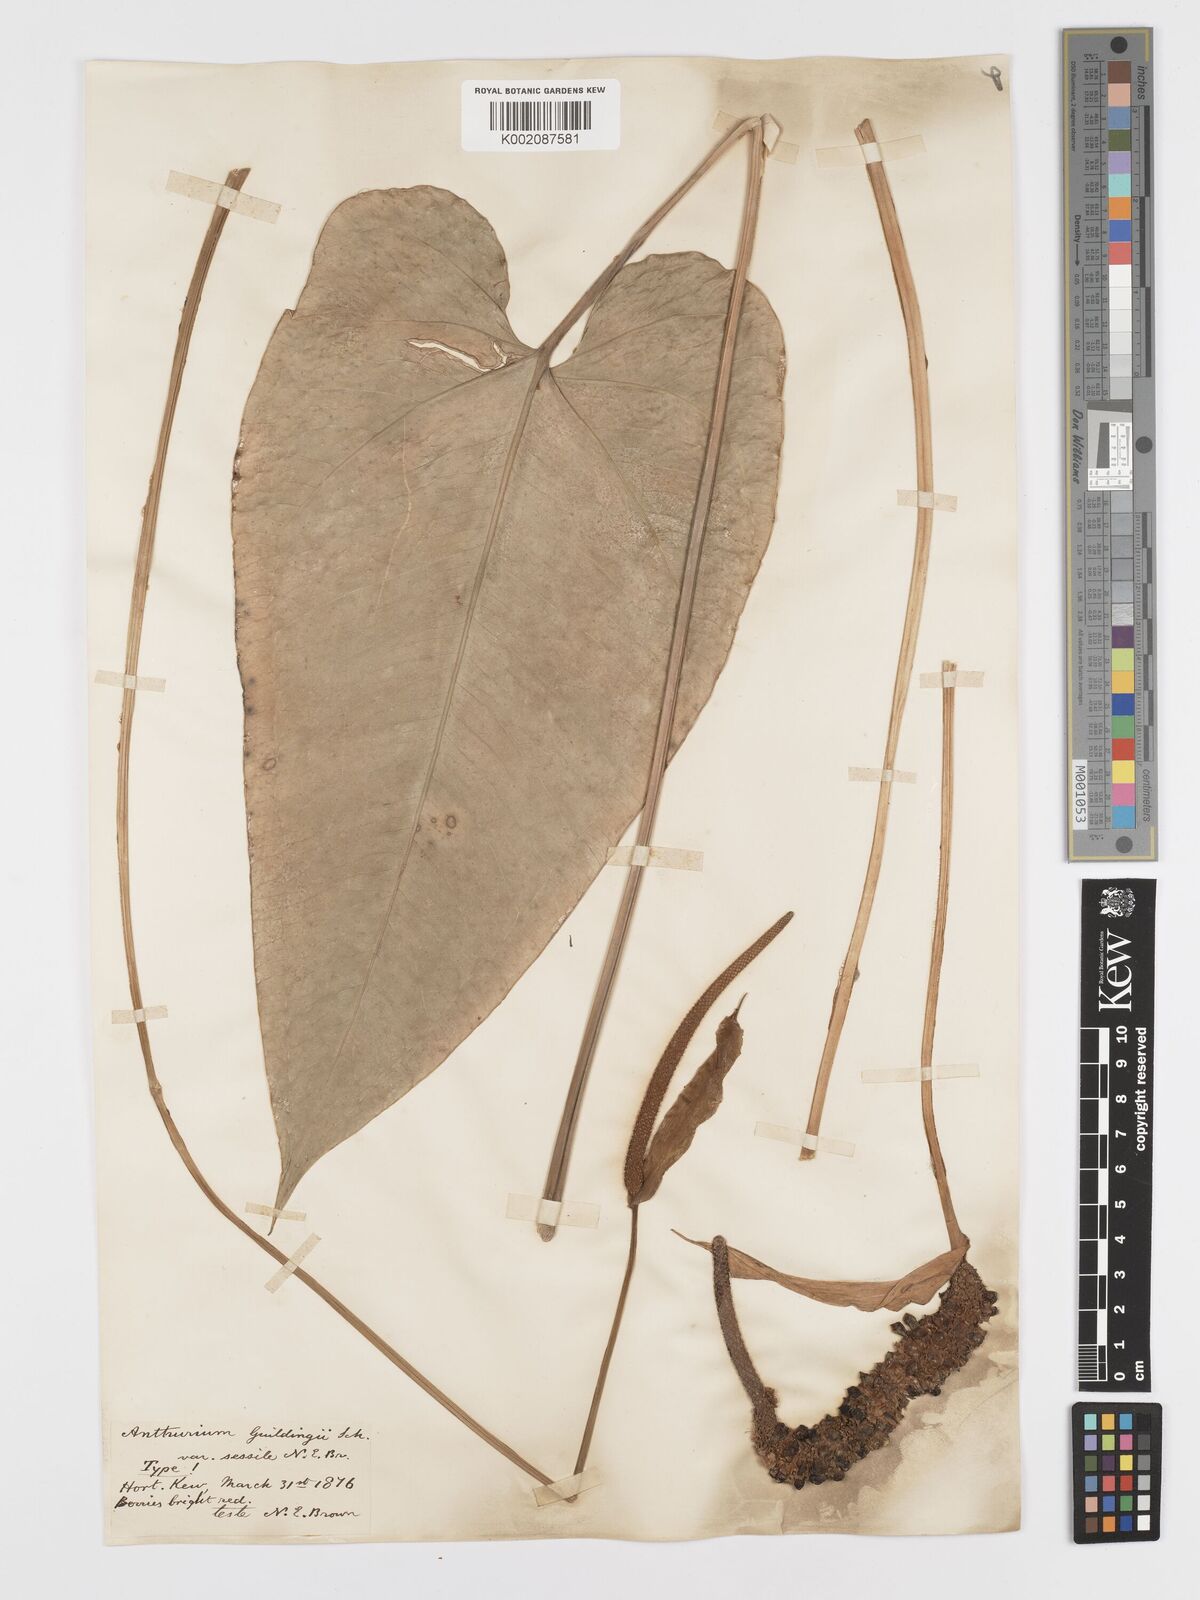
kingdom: Plantae
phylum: Tracheophyta
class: Liliopsida
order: Alismatales
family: Araceae
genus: Anthurium
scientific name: Anthurium cordatum
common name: Monkey tail
